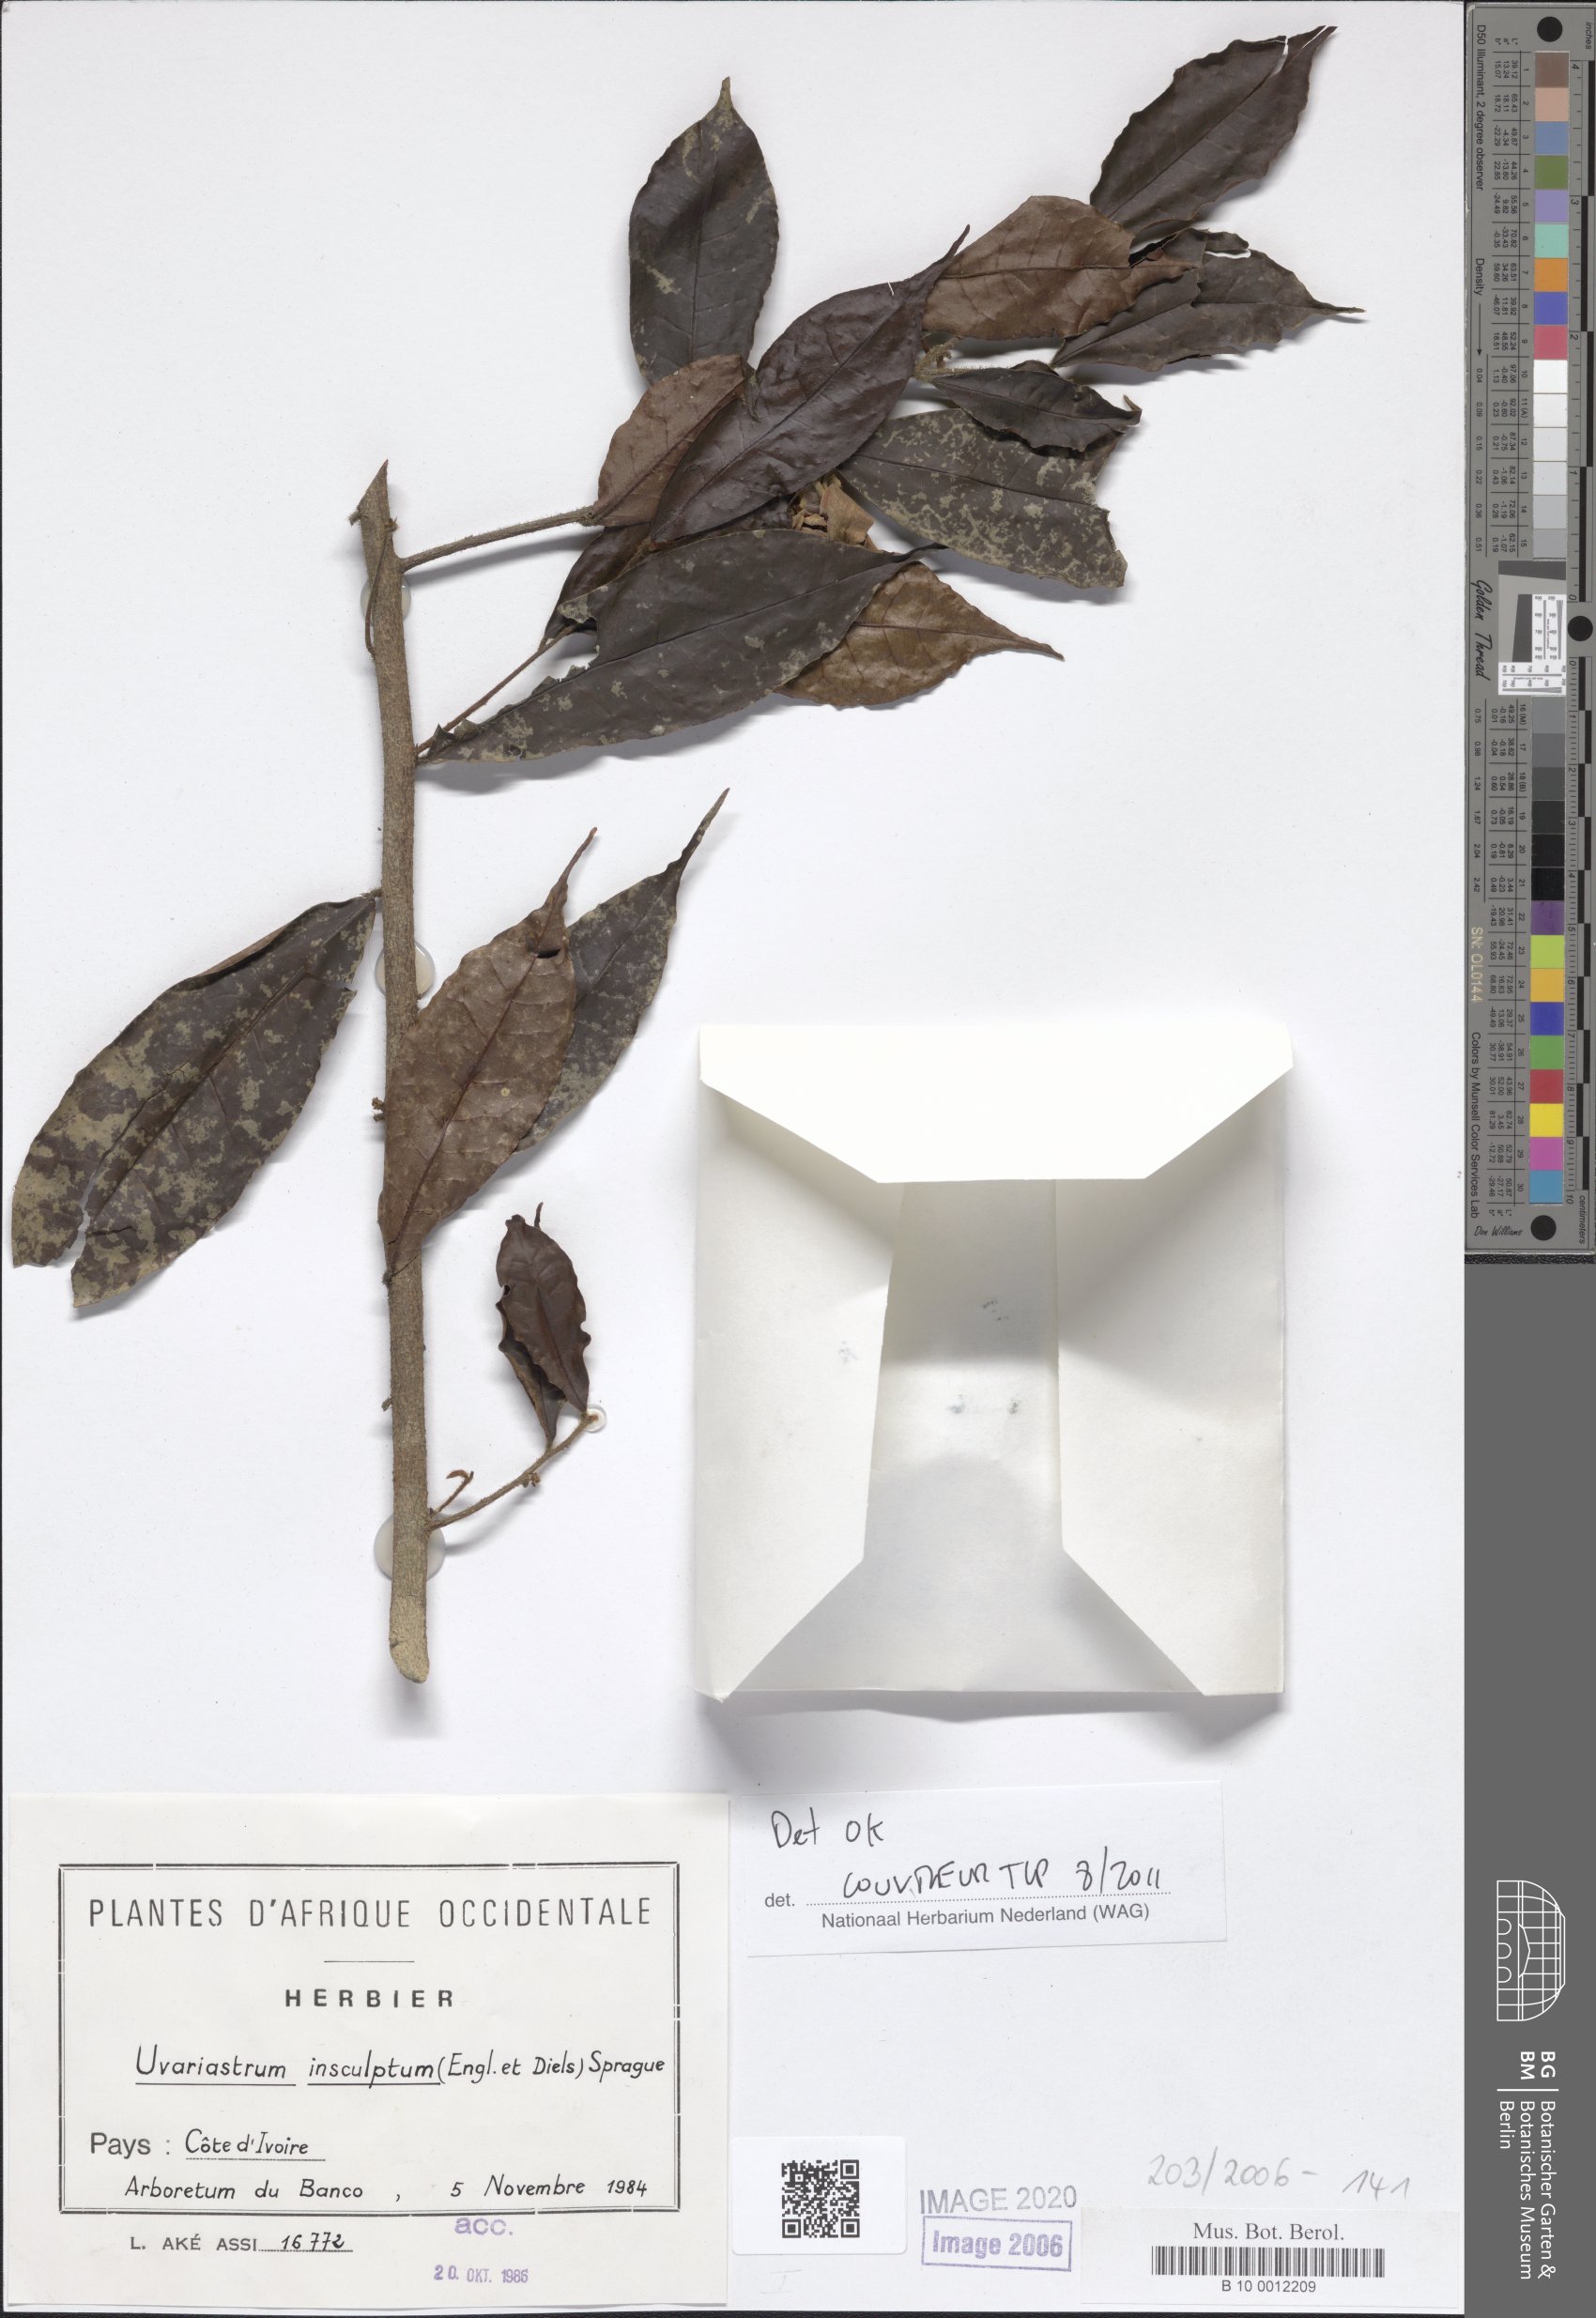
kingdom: Plantae
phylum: Tracheophyta
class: Magnoliopsida
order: Magnoliales
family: Annonaceae
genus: Uvariastrum
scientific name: Uvariastrum pierreanum
